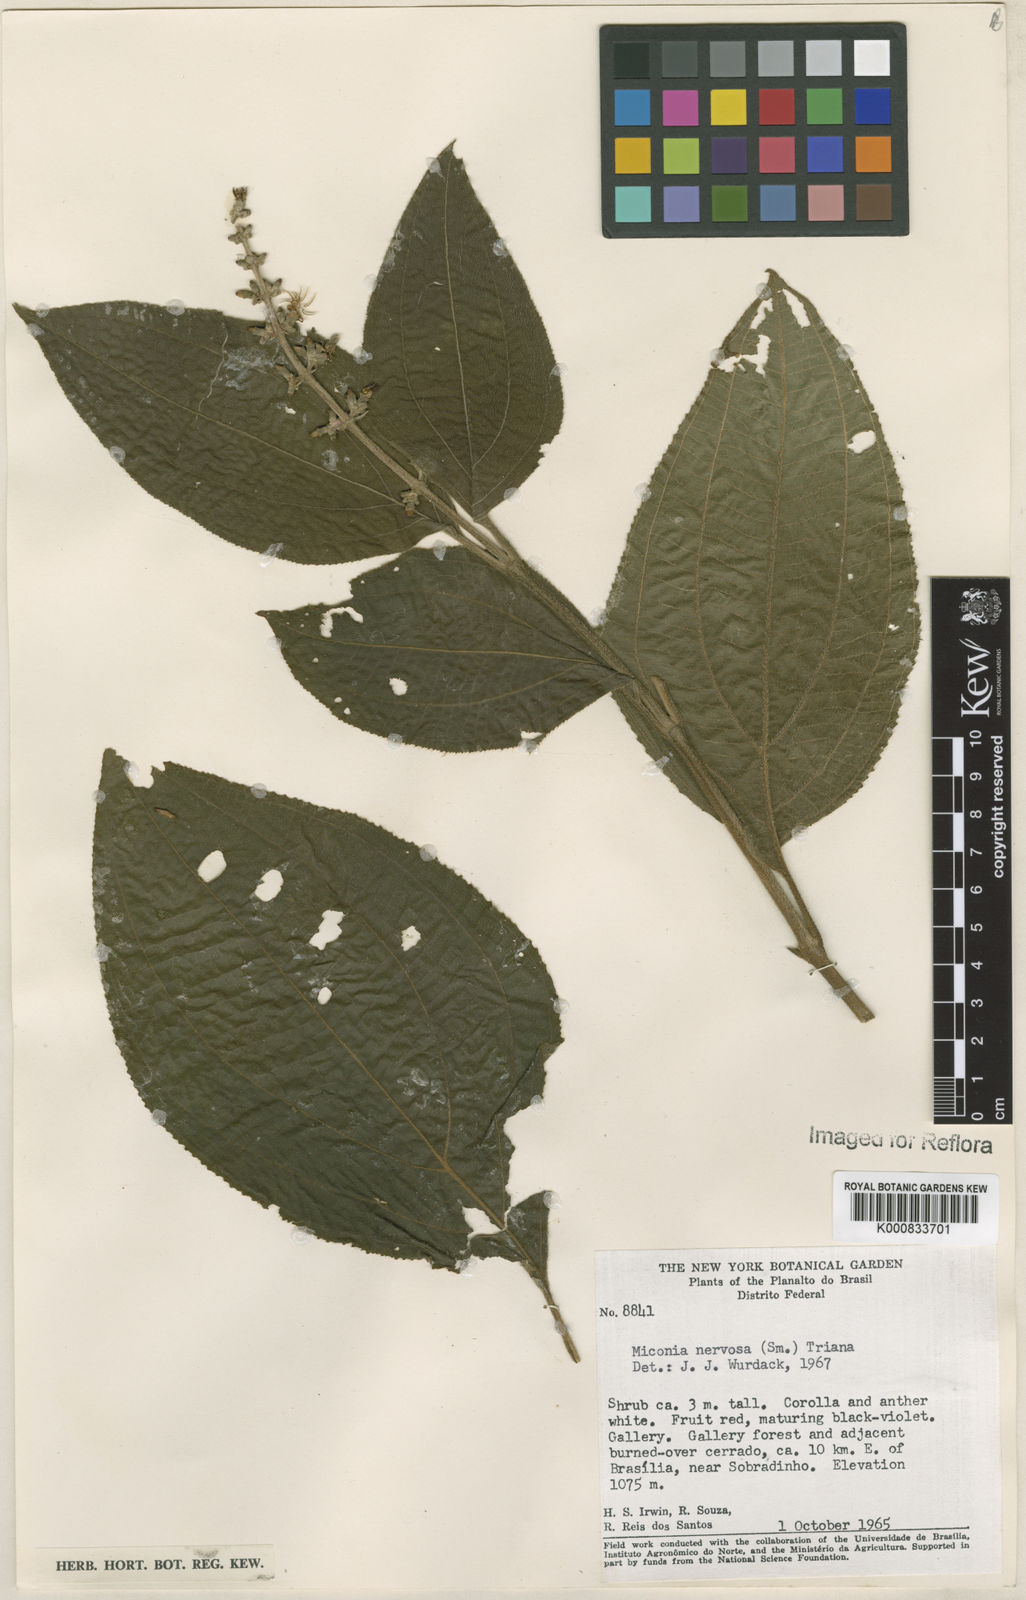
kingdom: Plantae
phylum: Tracheophyta
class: Magnoliopsida
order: Myrtales
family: Melastomataceae
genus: Miconia
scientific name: Miconia nervosa
